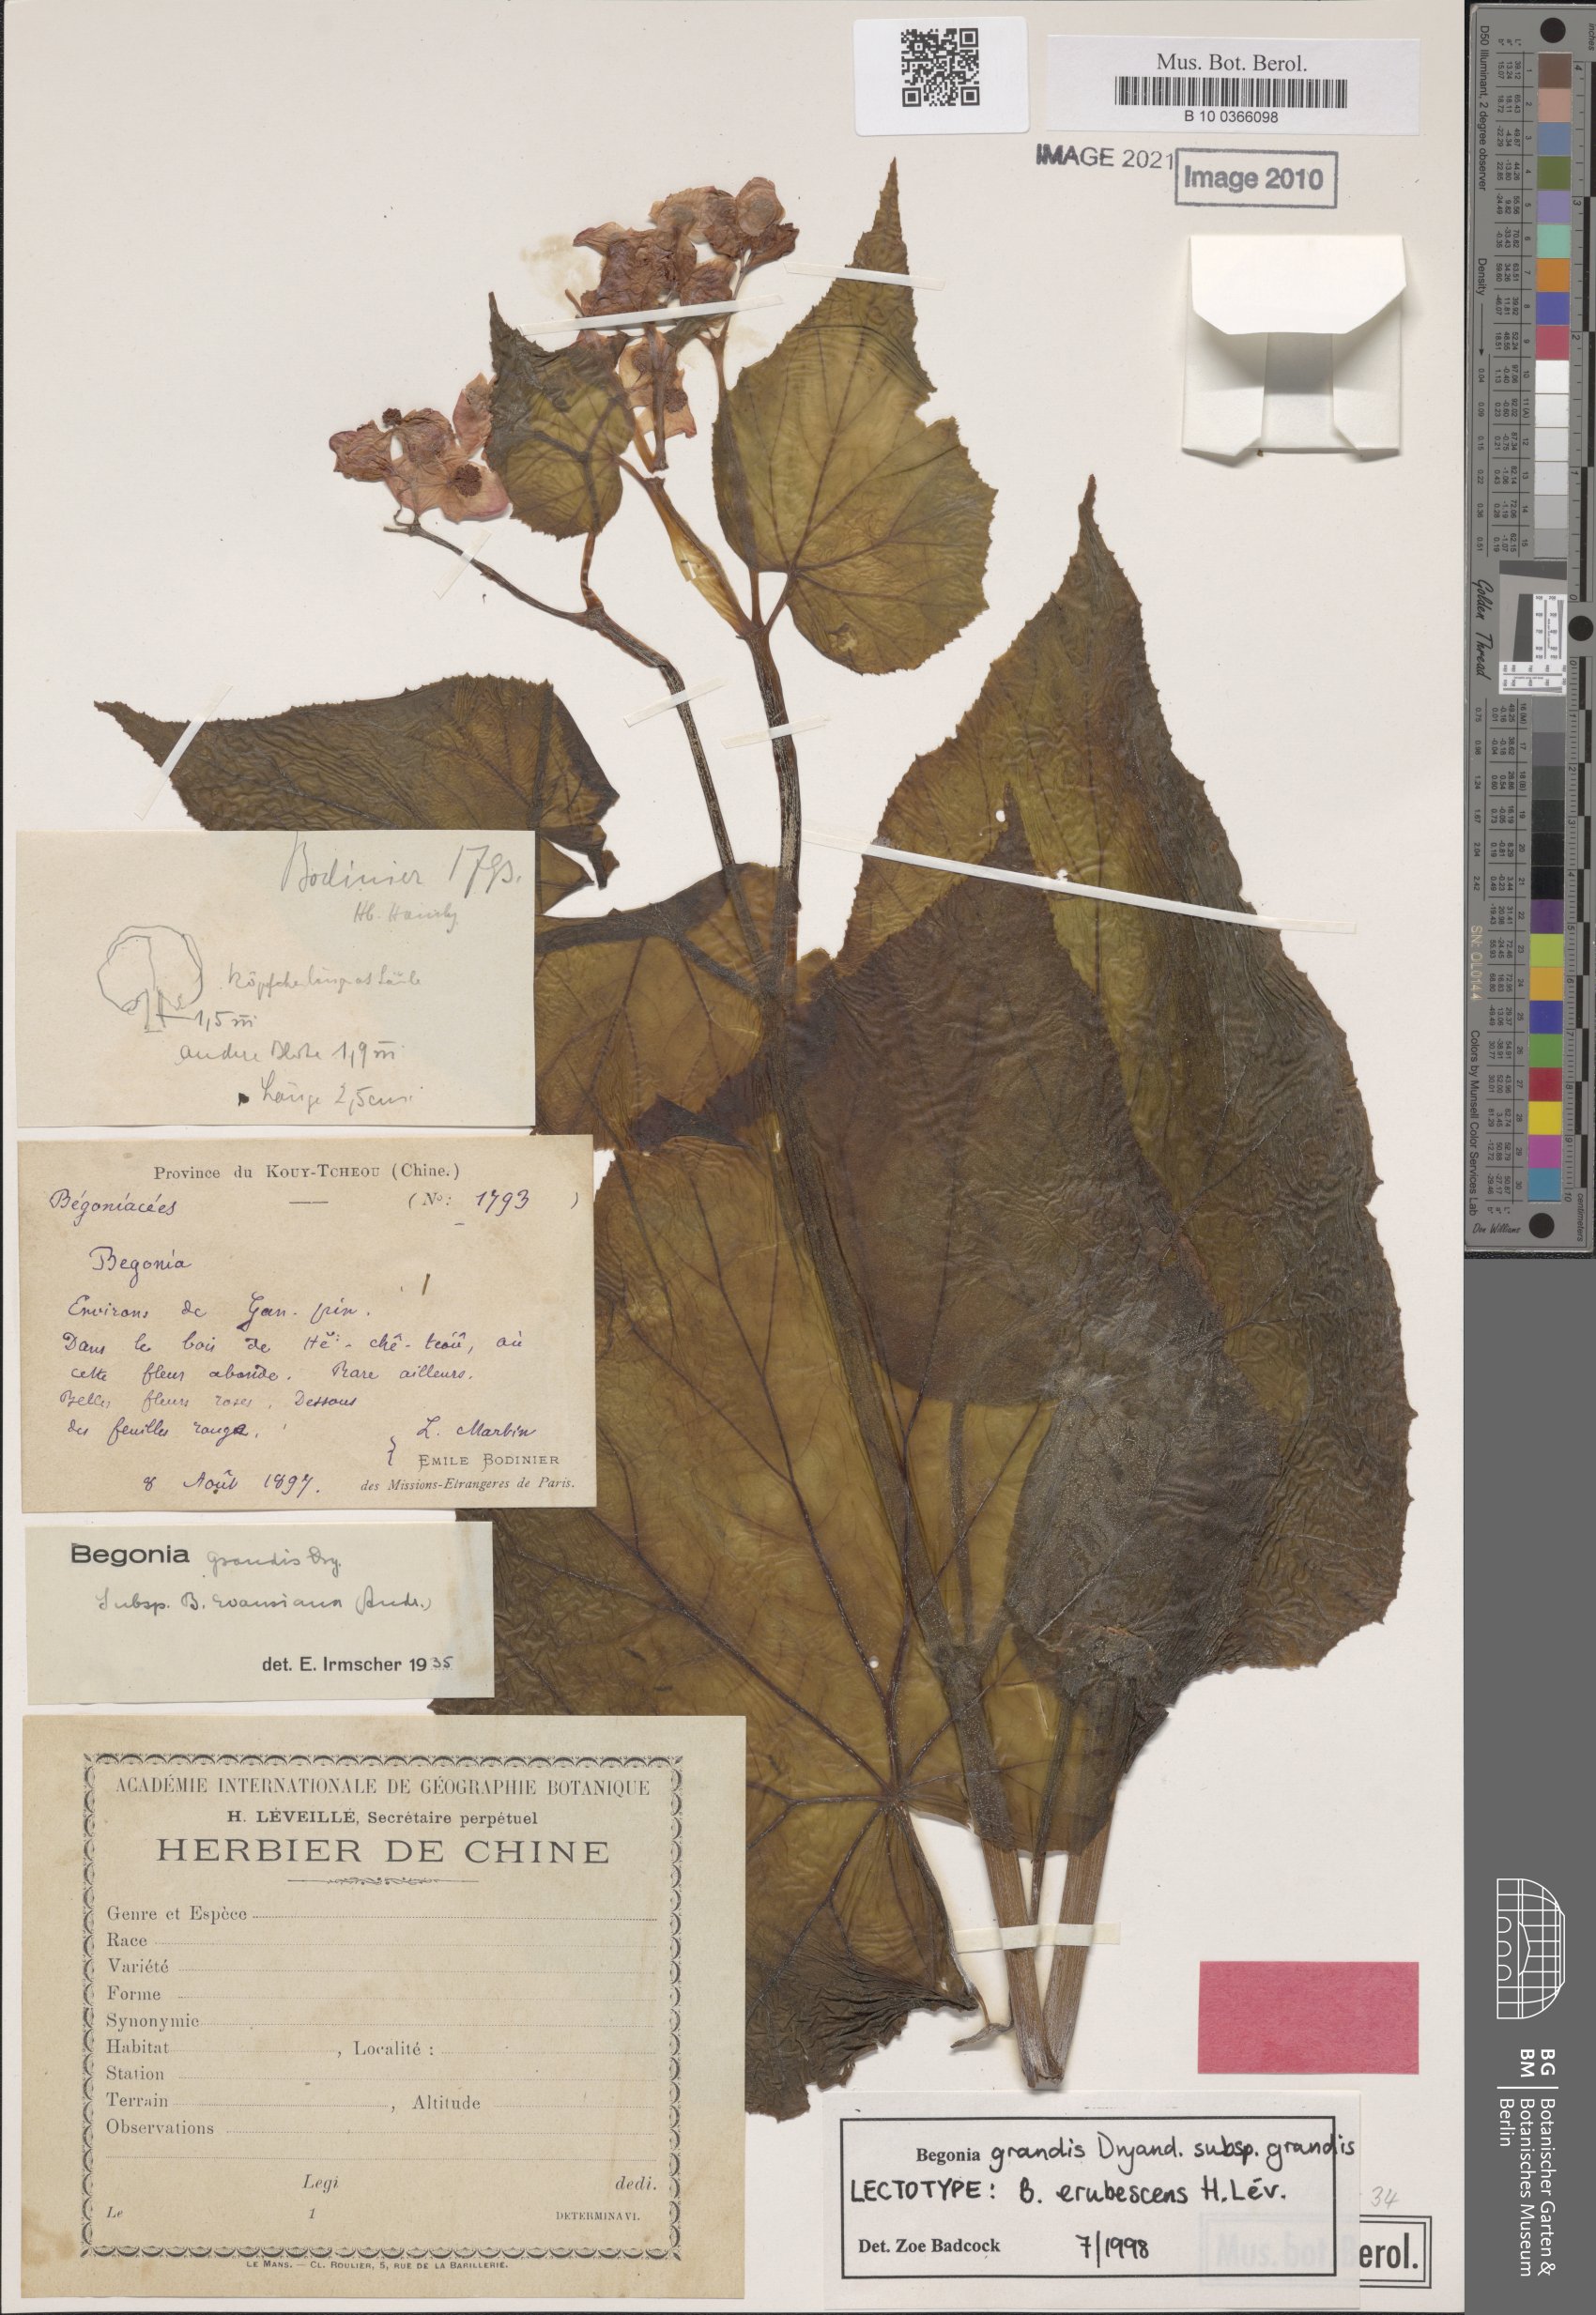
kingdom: Plantae
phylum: Tracheophyta
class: Magnoliopsida
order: Cucurbitales
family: Begoniaceae
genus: Begonia
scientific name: Begonia grandis
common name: Hardy begonia
